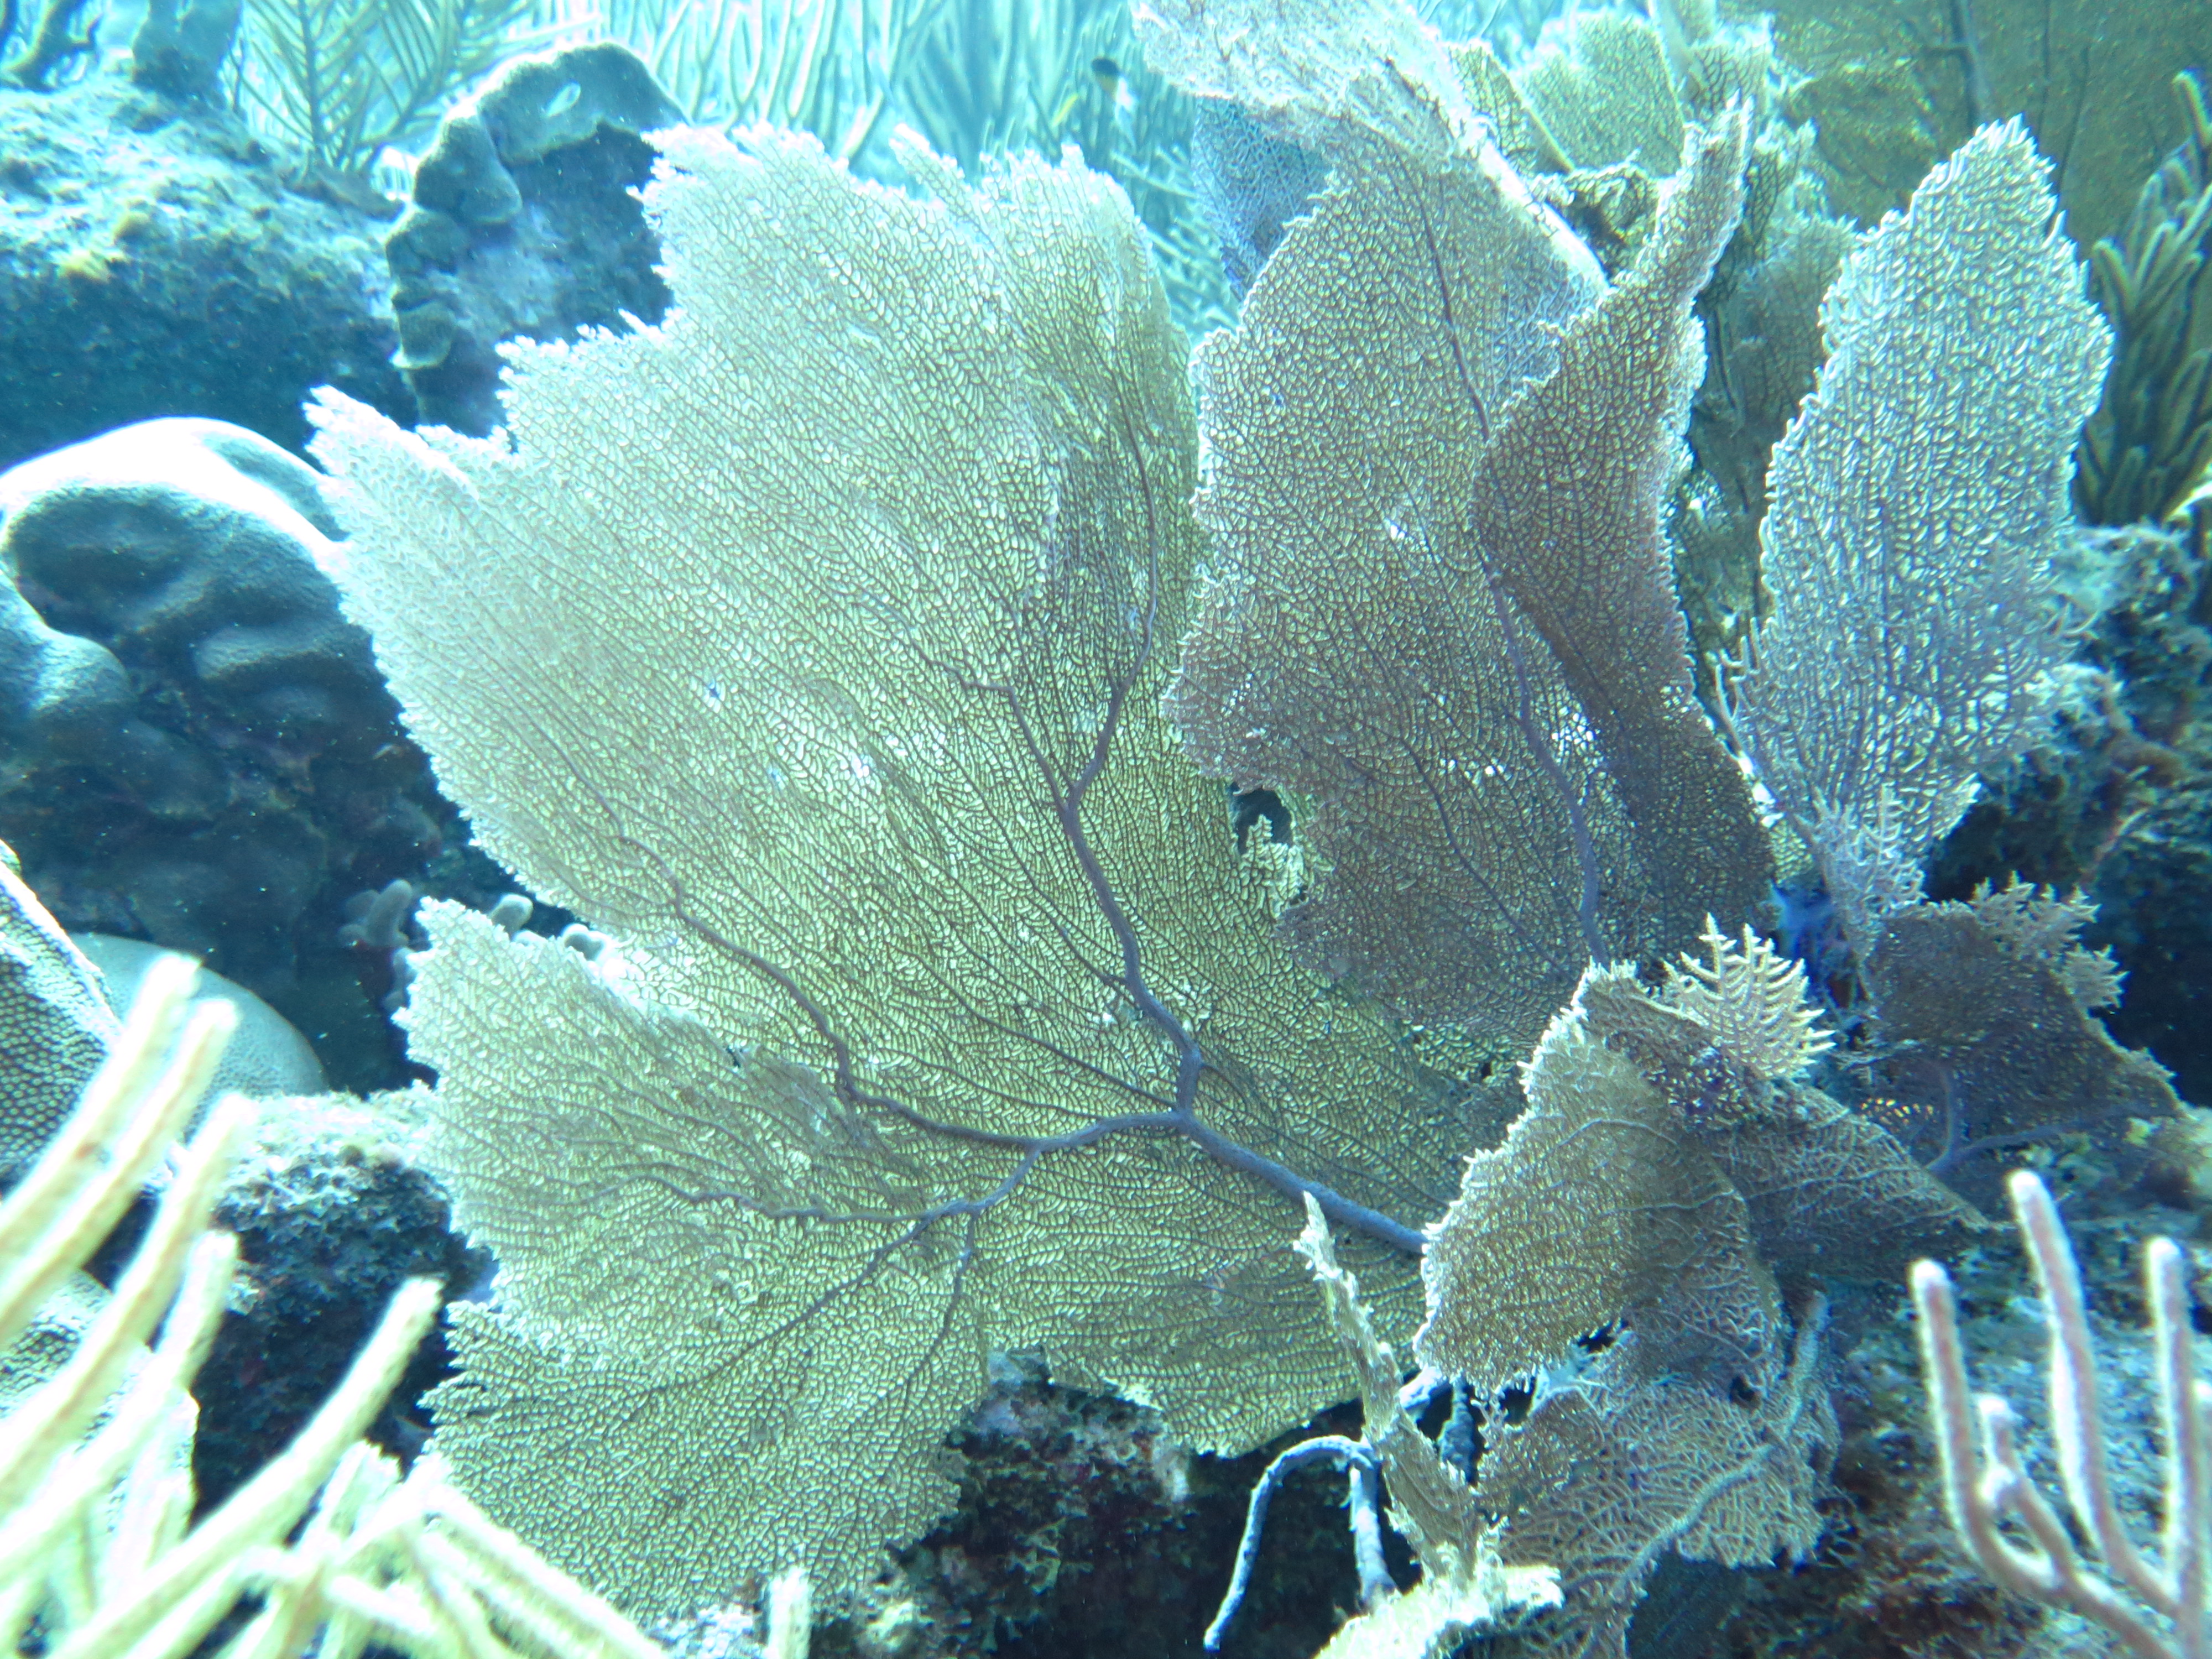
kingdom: Animalia
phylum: Cnidaria
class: Anthozoa
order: Malacalcyonacea
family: Gorgoniidae
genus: Gorgonia
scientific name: Gorgonia ventalina
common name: Common sea fan
